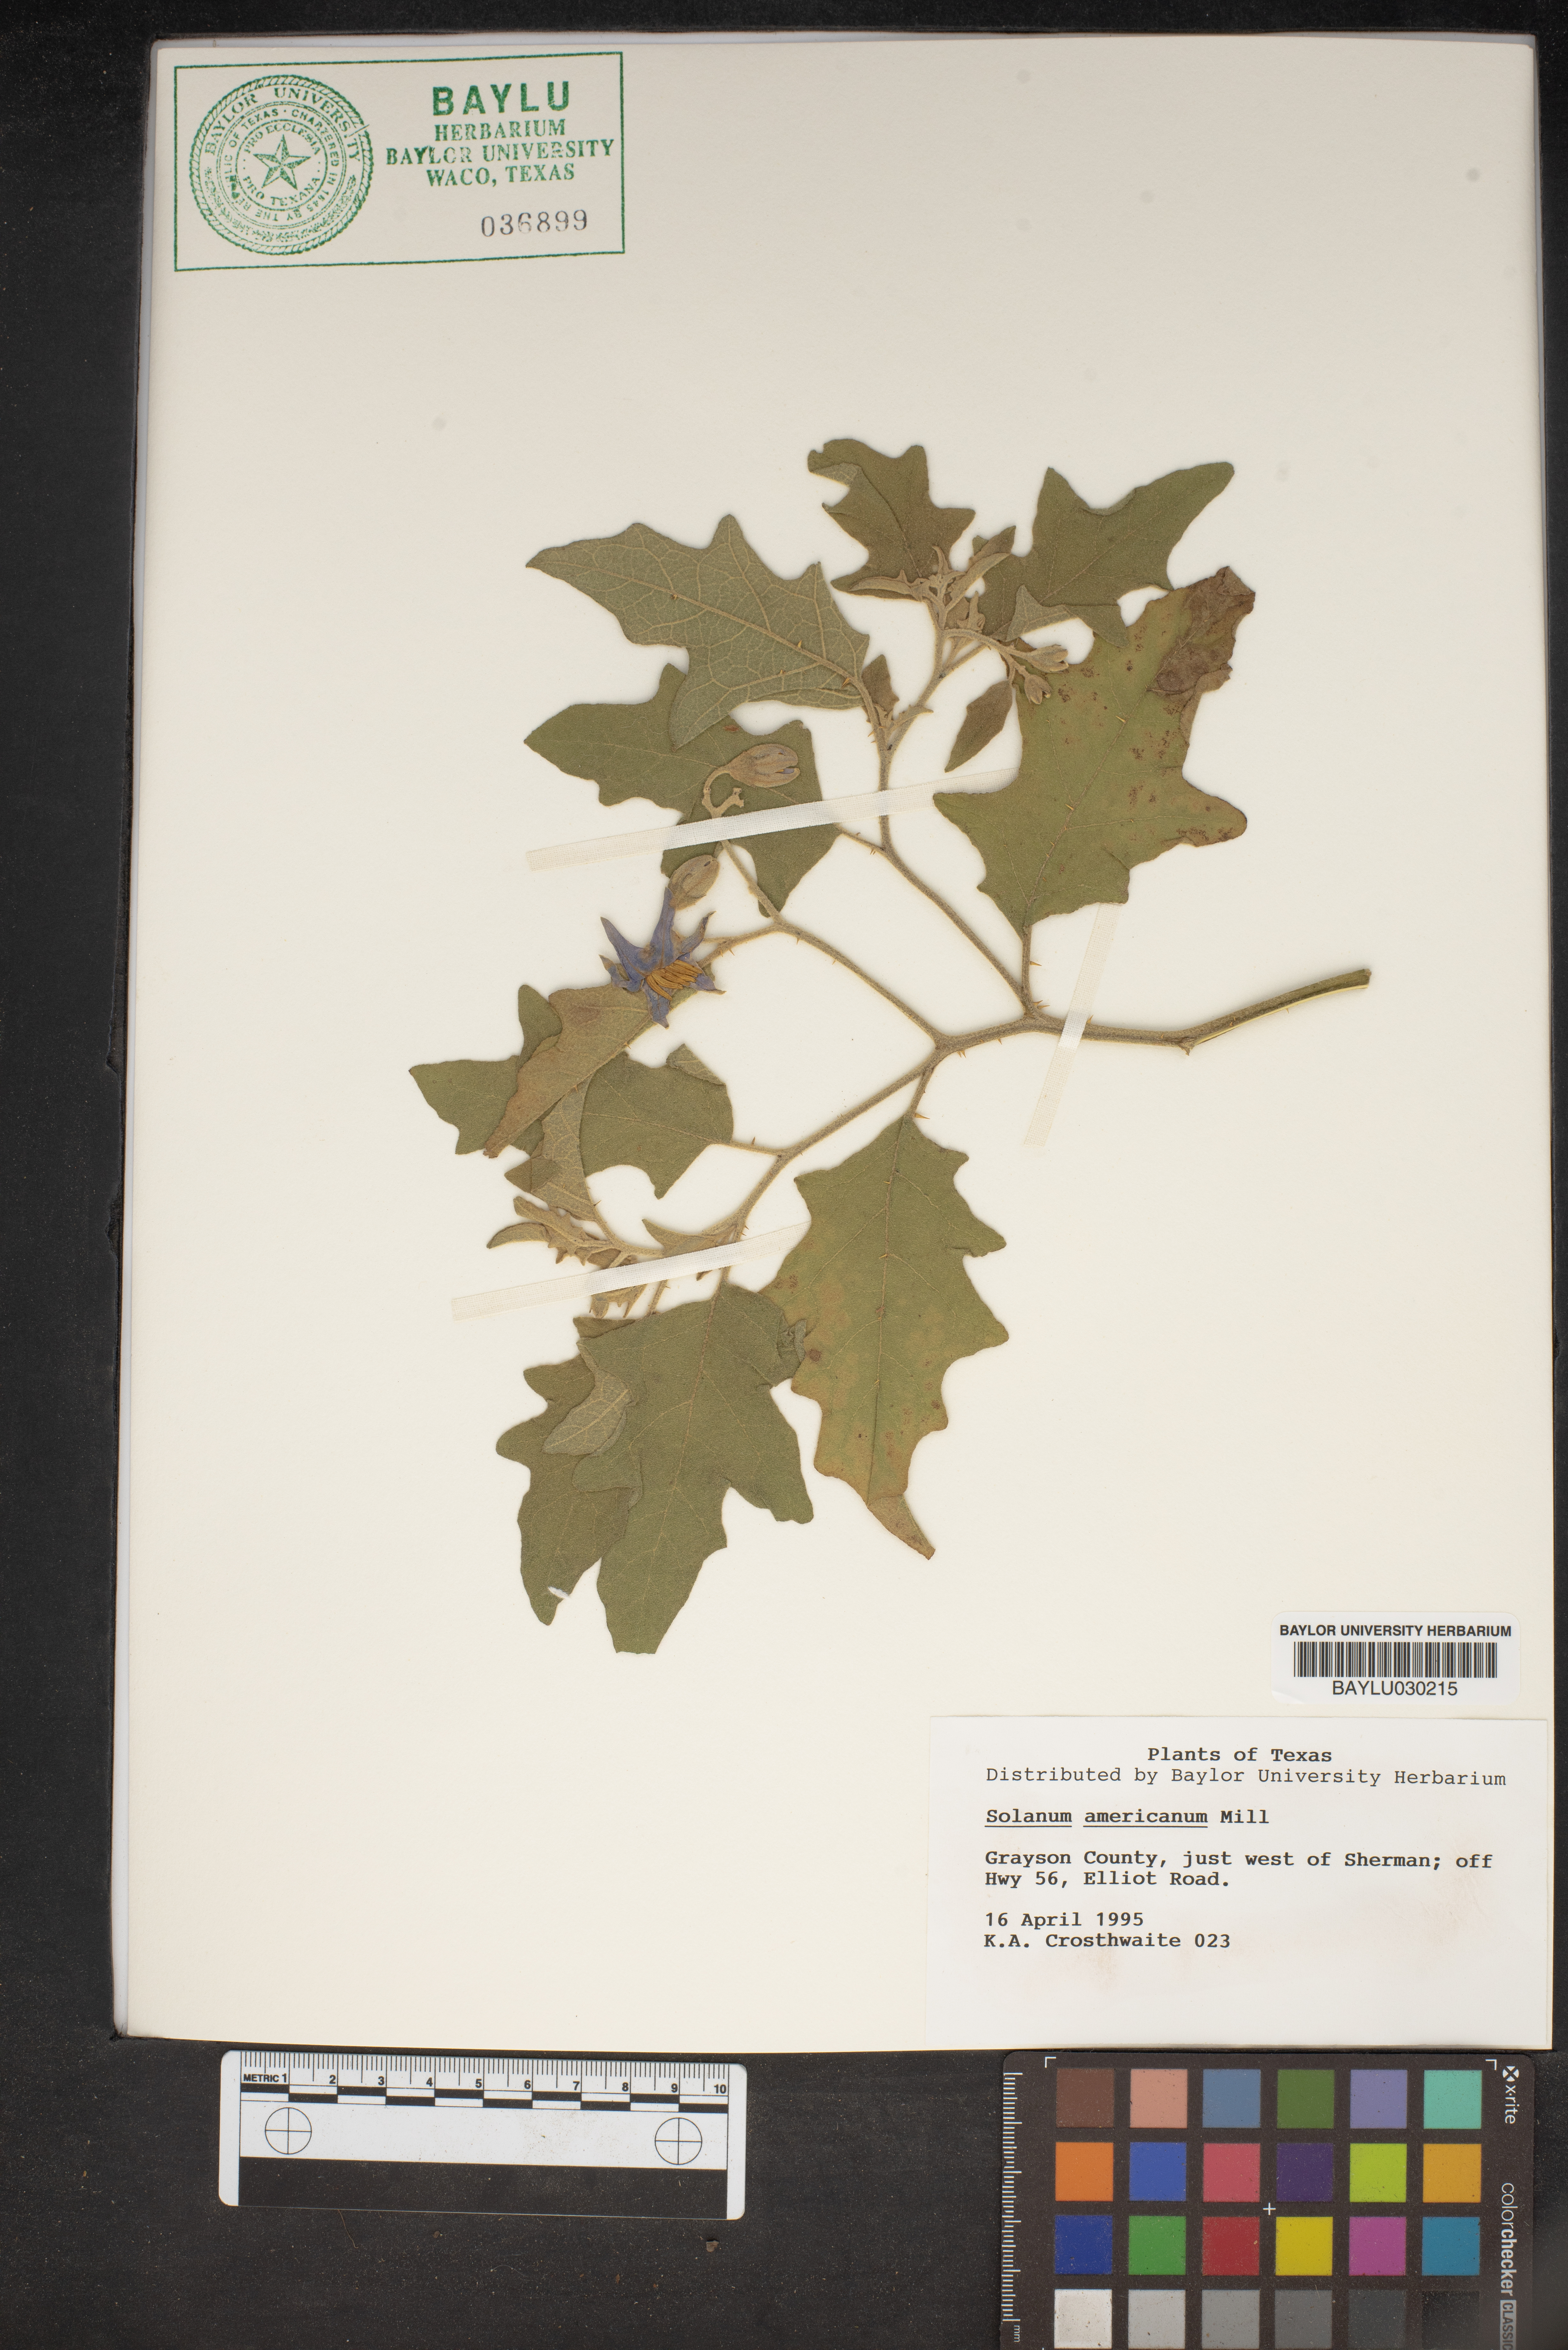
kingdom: Plantae
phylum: Tracheophyta
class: Magnoliopsida
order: Solanales
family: Solanaceae
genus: Solanum
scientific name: Solanum americanum
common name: American black nightshade
